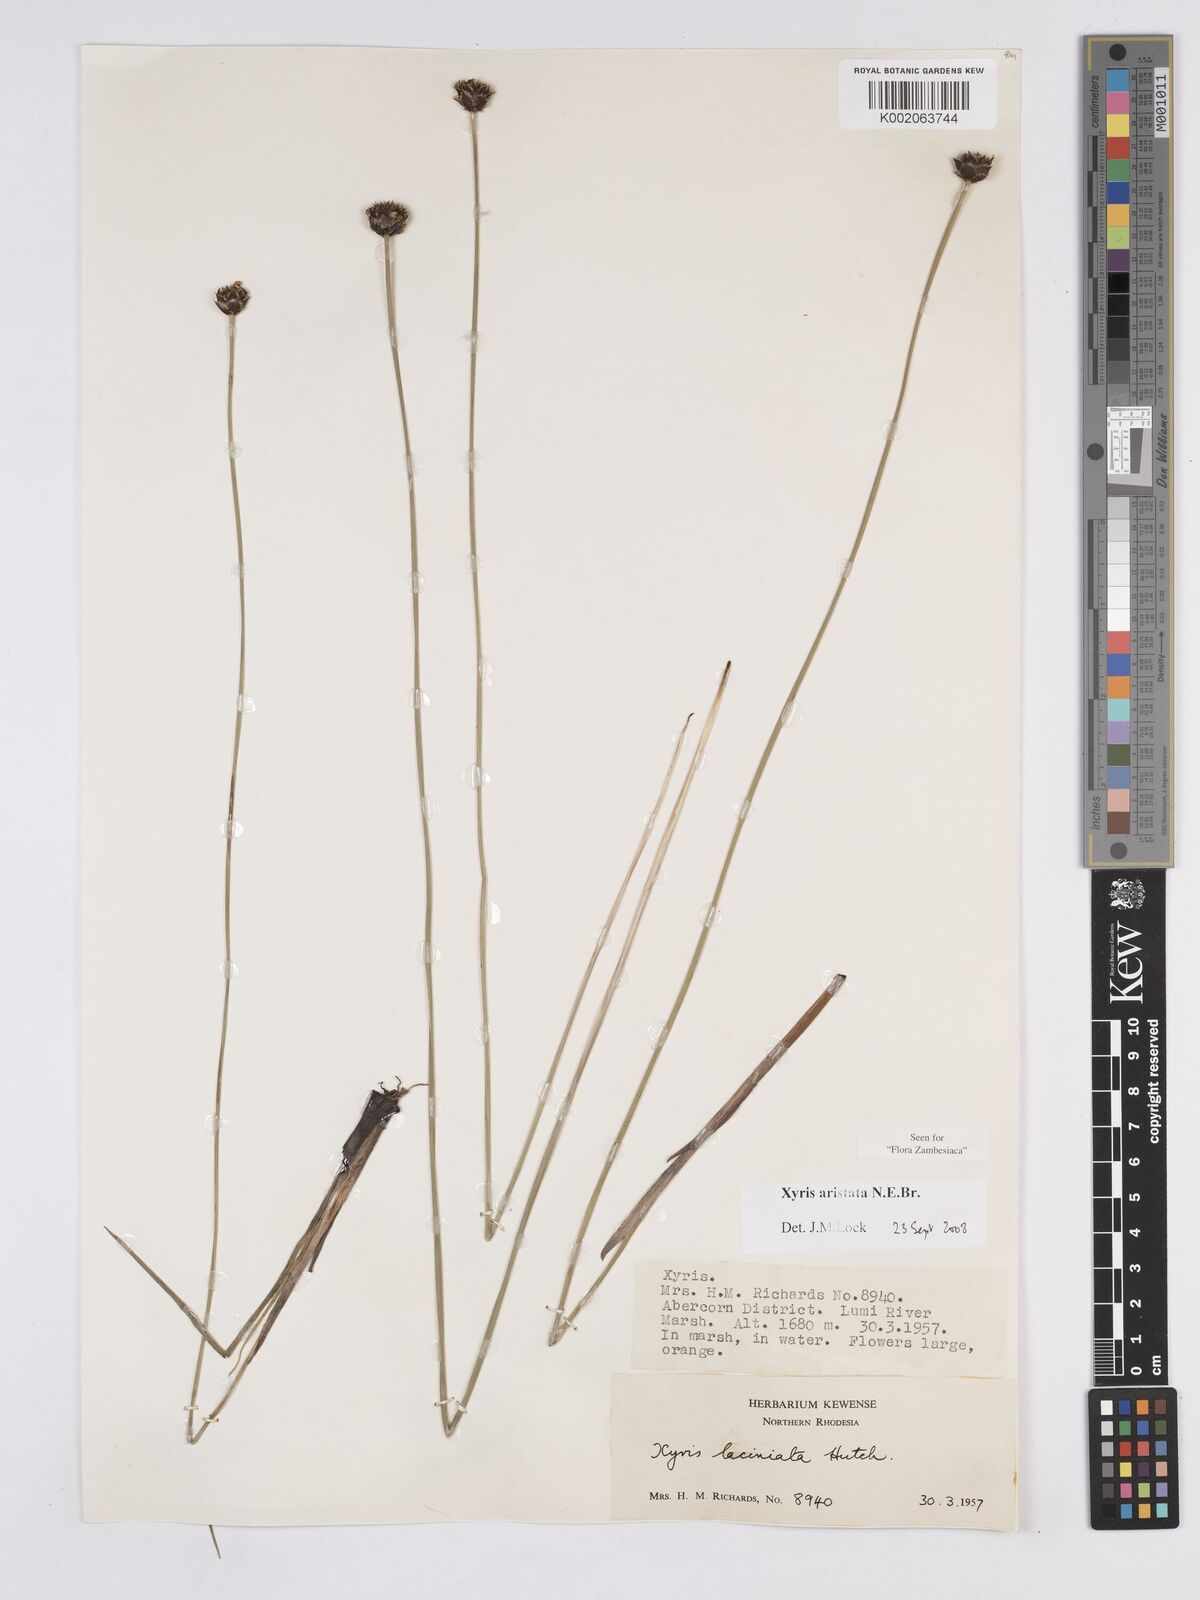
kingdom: Plantae
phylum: Tracheophyta
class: Liliopsida
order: Poales
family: Xyridaceae
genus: Xyris
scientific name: Xyris aristata
